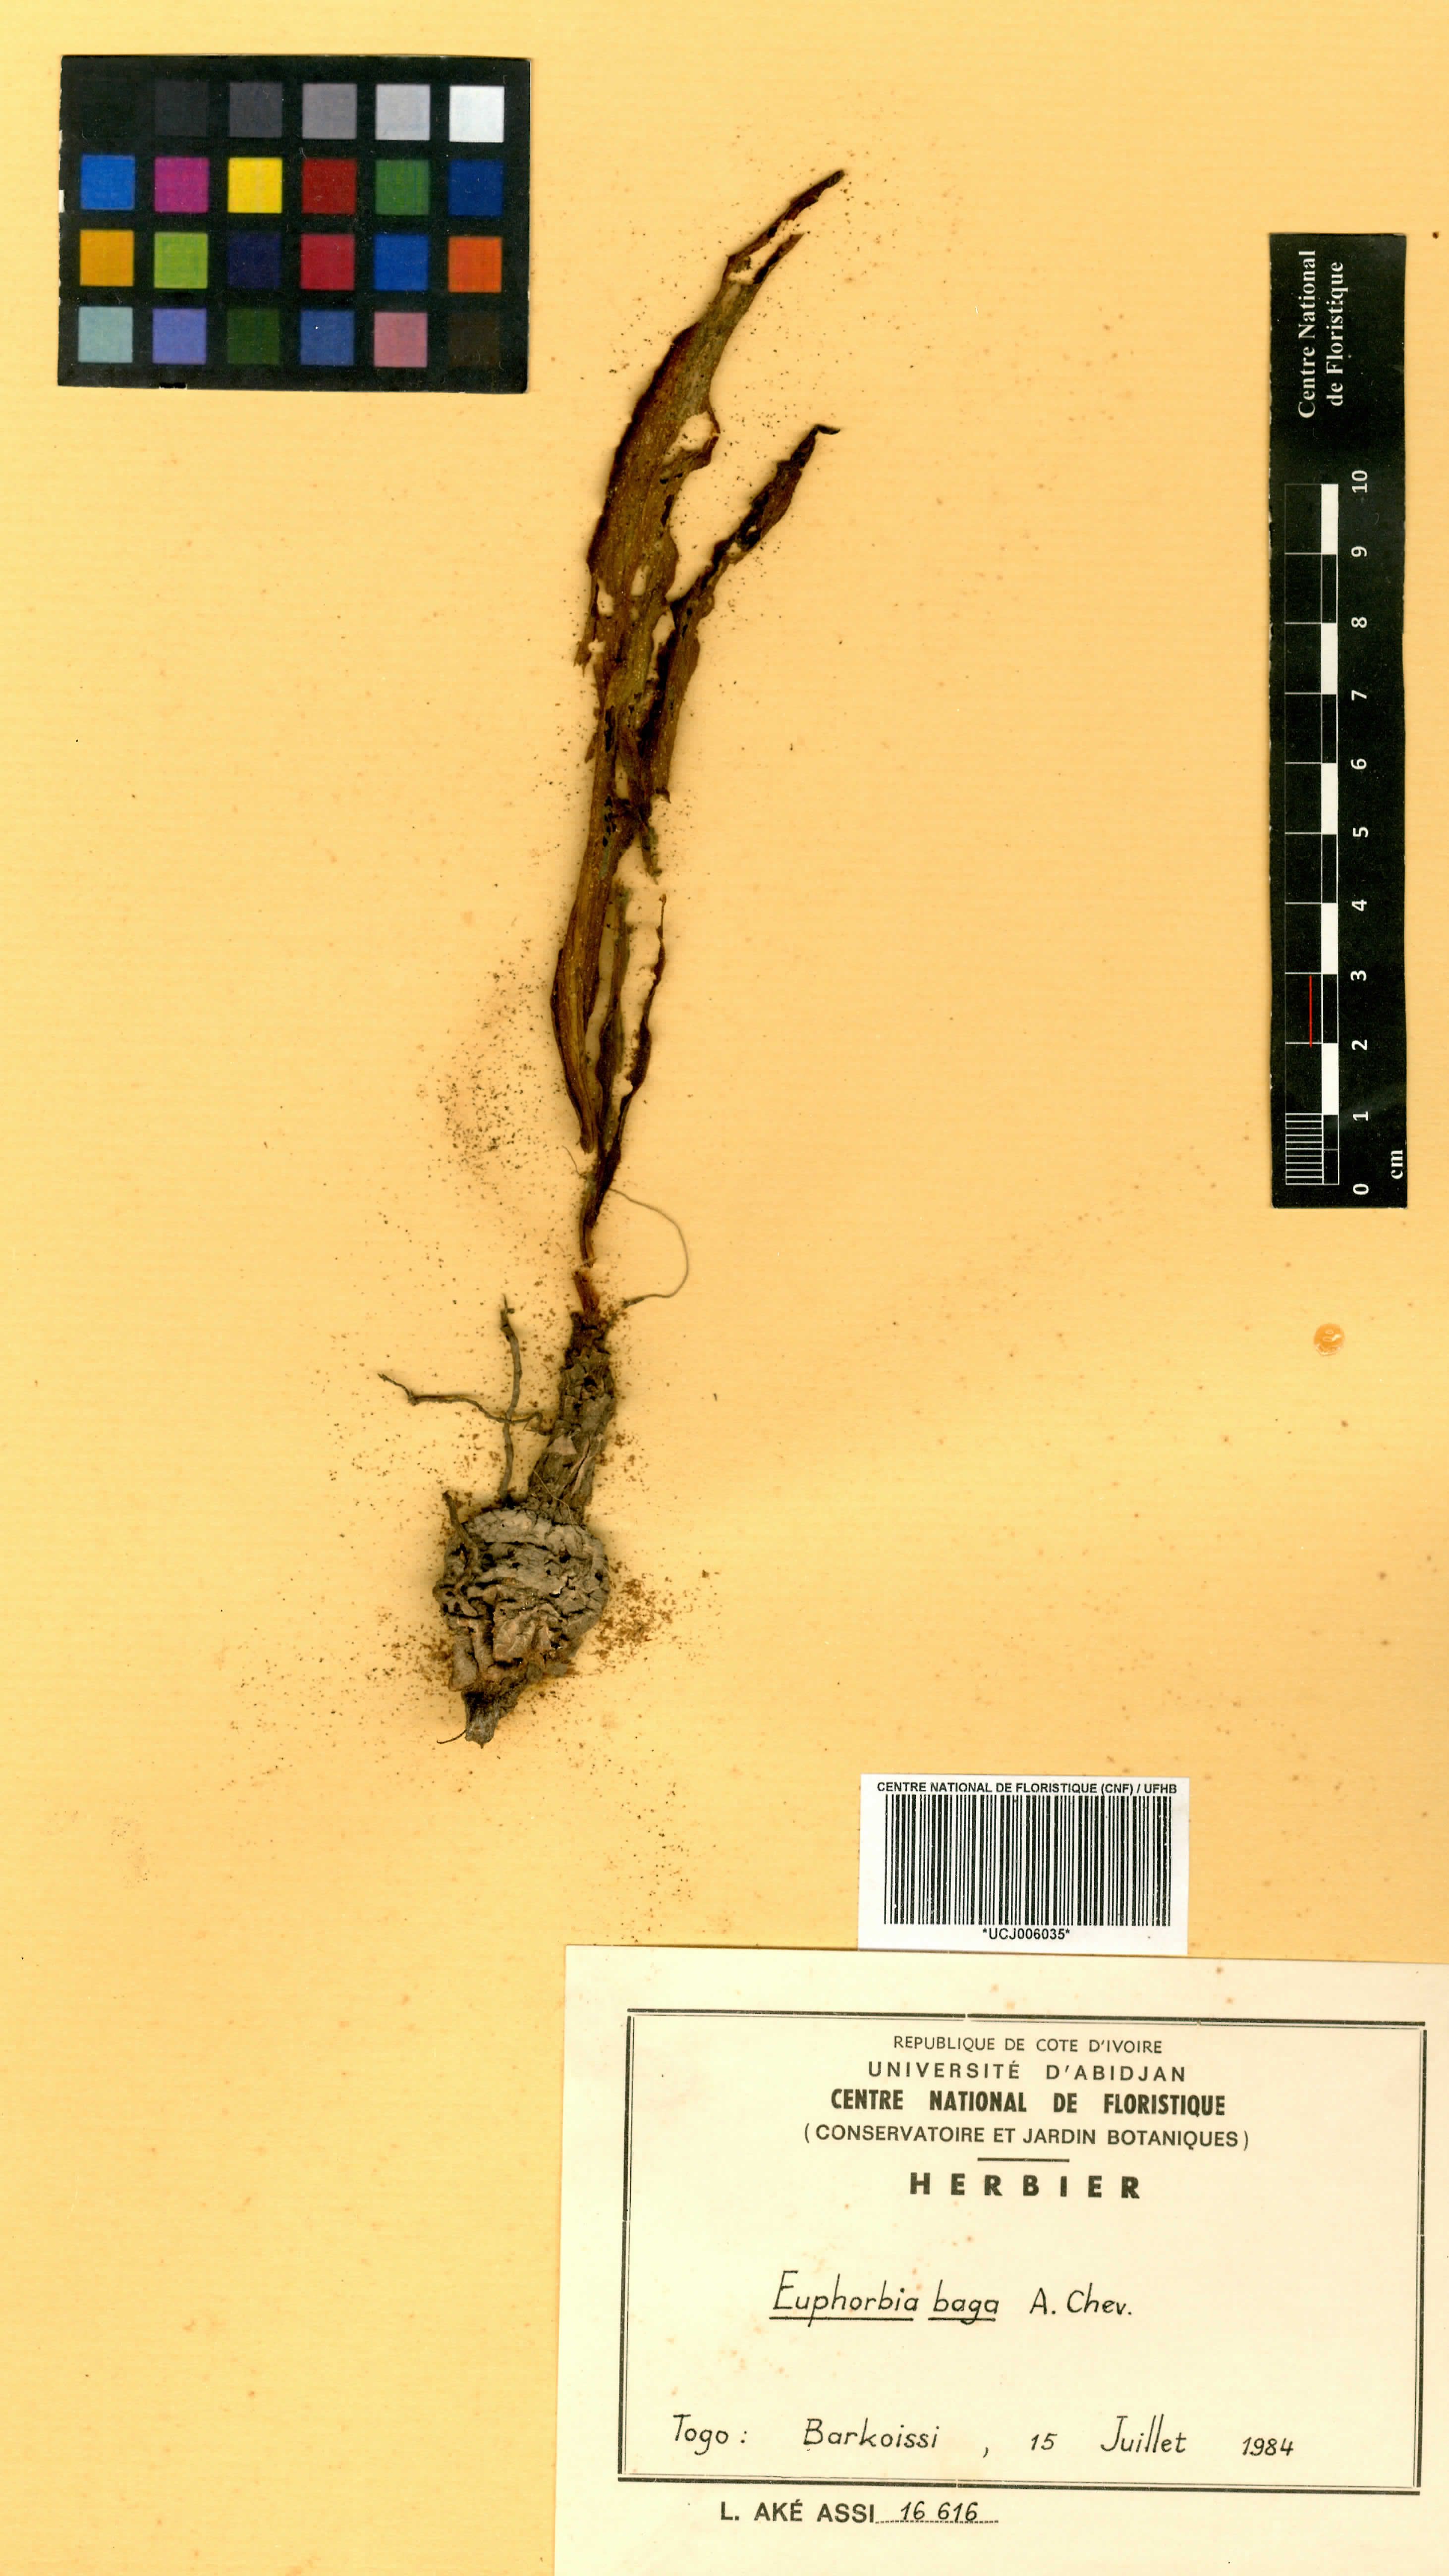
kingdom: Plantae
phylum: Tracheophyta
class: Magnoliopsida
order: Malpighiales
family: Euphorbiaceae
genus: Euphorbia
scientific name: Euphorbia baga
